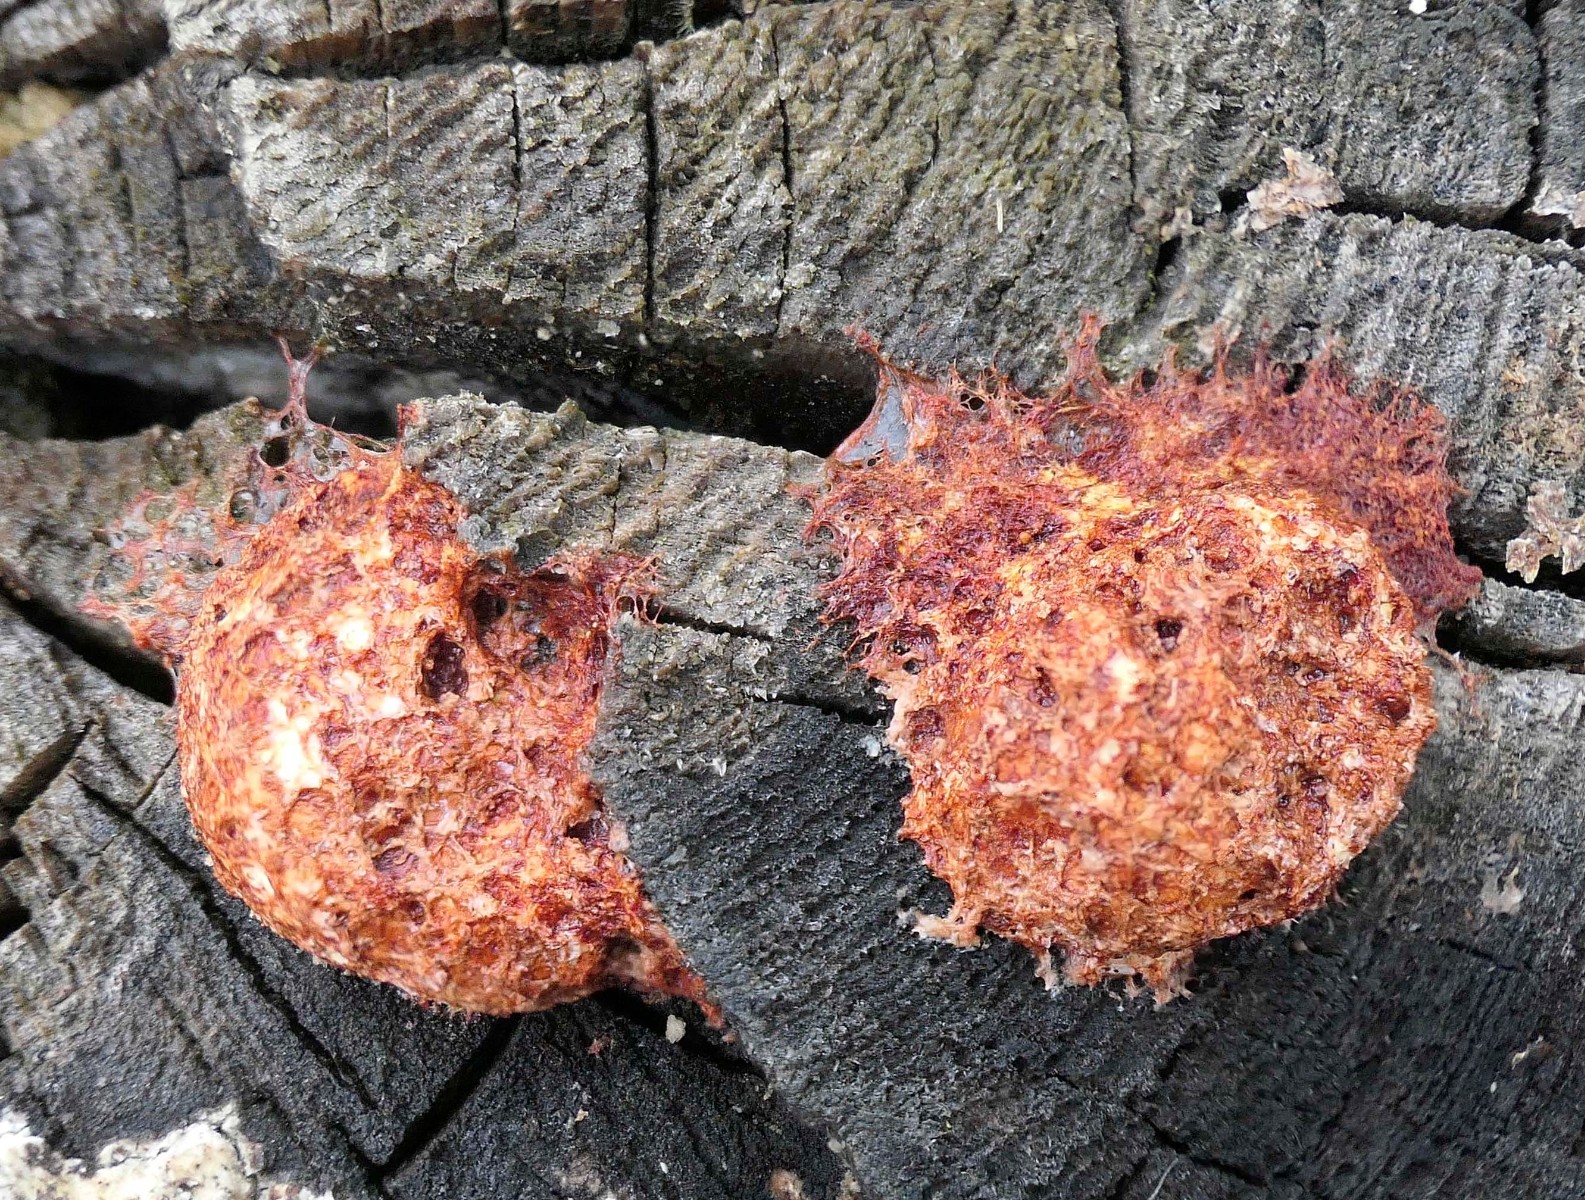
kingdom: Protozoa
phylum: Mycetozoa
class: Myxomycetes
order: Physarales
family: Physaraceae
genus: Fuligo
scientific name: Fuligo septica
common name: Dog vomit slime mold
